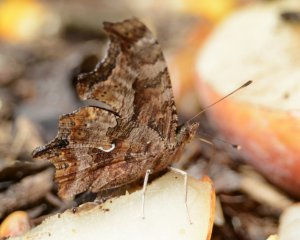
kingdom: Animalia
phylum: Arthropoda
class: Insecta
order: Lepidoptera
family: Nymphalidae
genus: Polygonia
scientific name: Polygonia comma
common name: Eastern Comma
